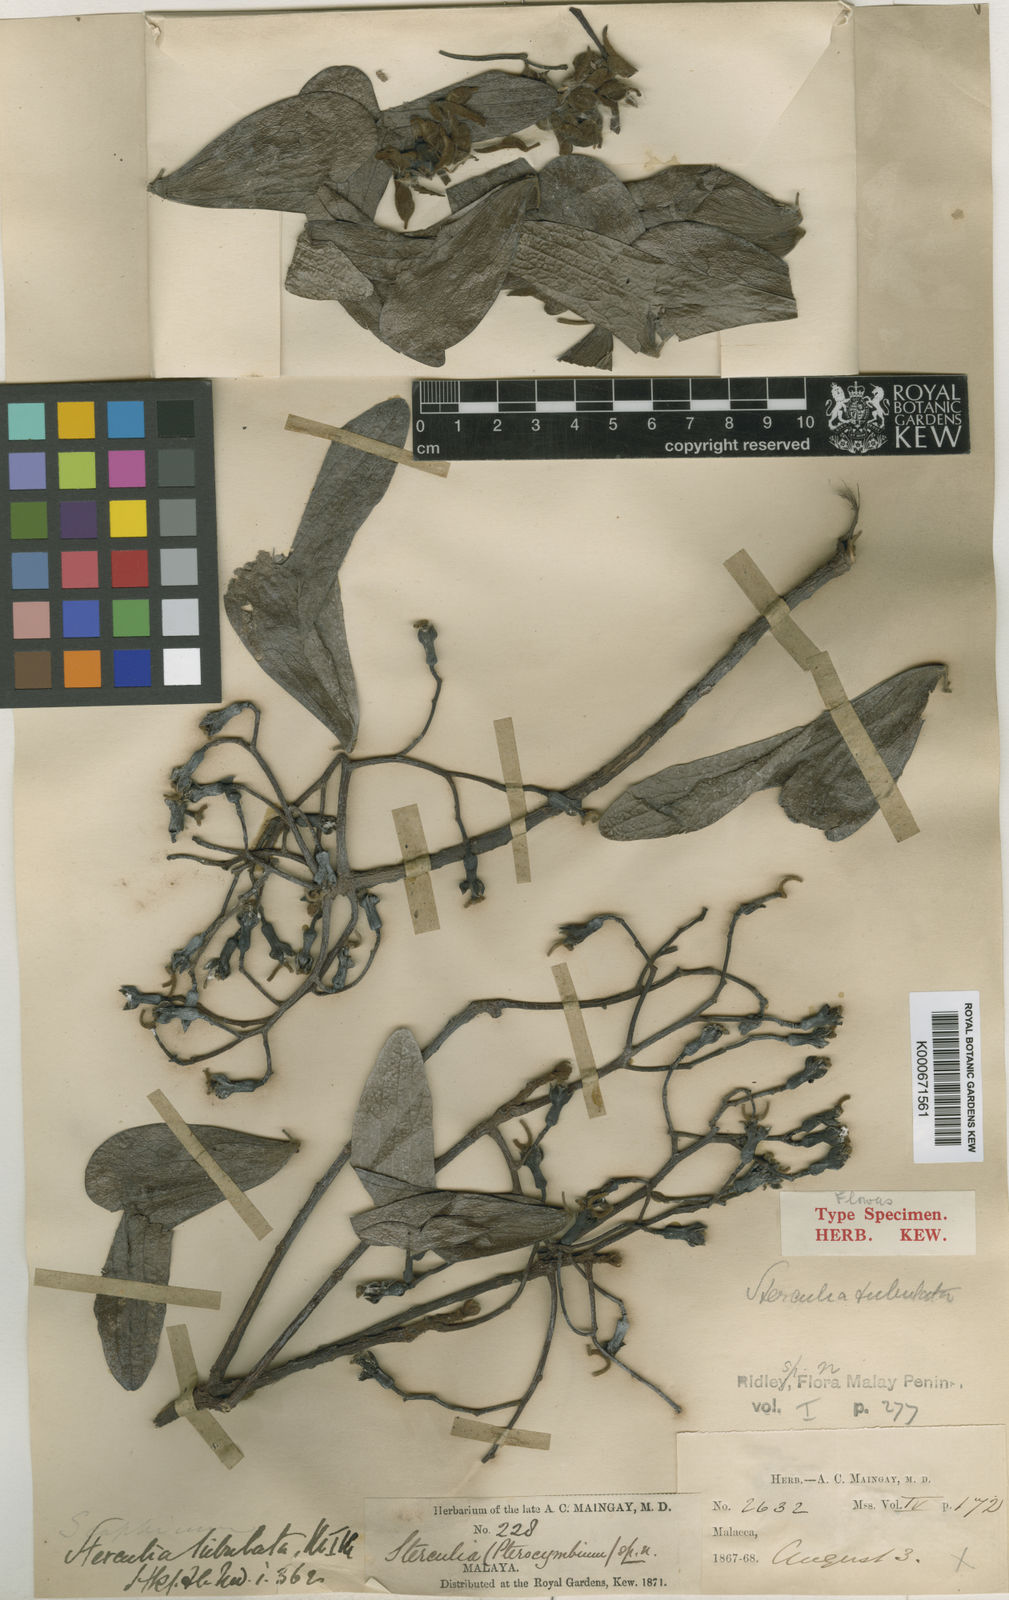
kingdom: Plantae
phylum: Tracheophyta
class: Magnoliopsida
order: Malvales
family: Malvaceae
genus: Pterocymbium
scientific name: Pterocymbium tubulatum
